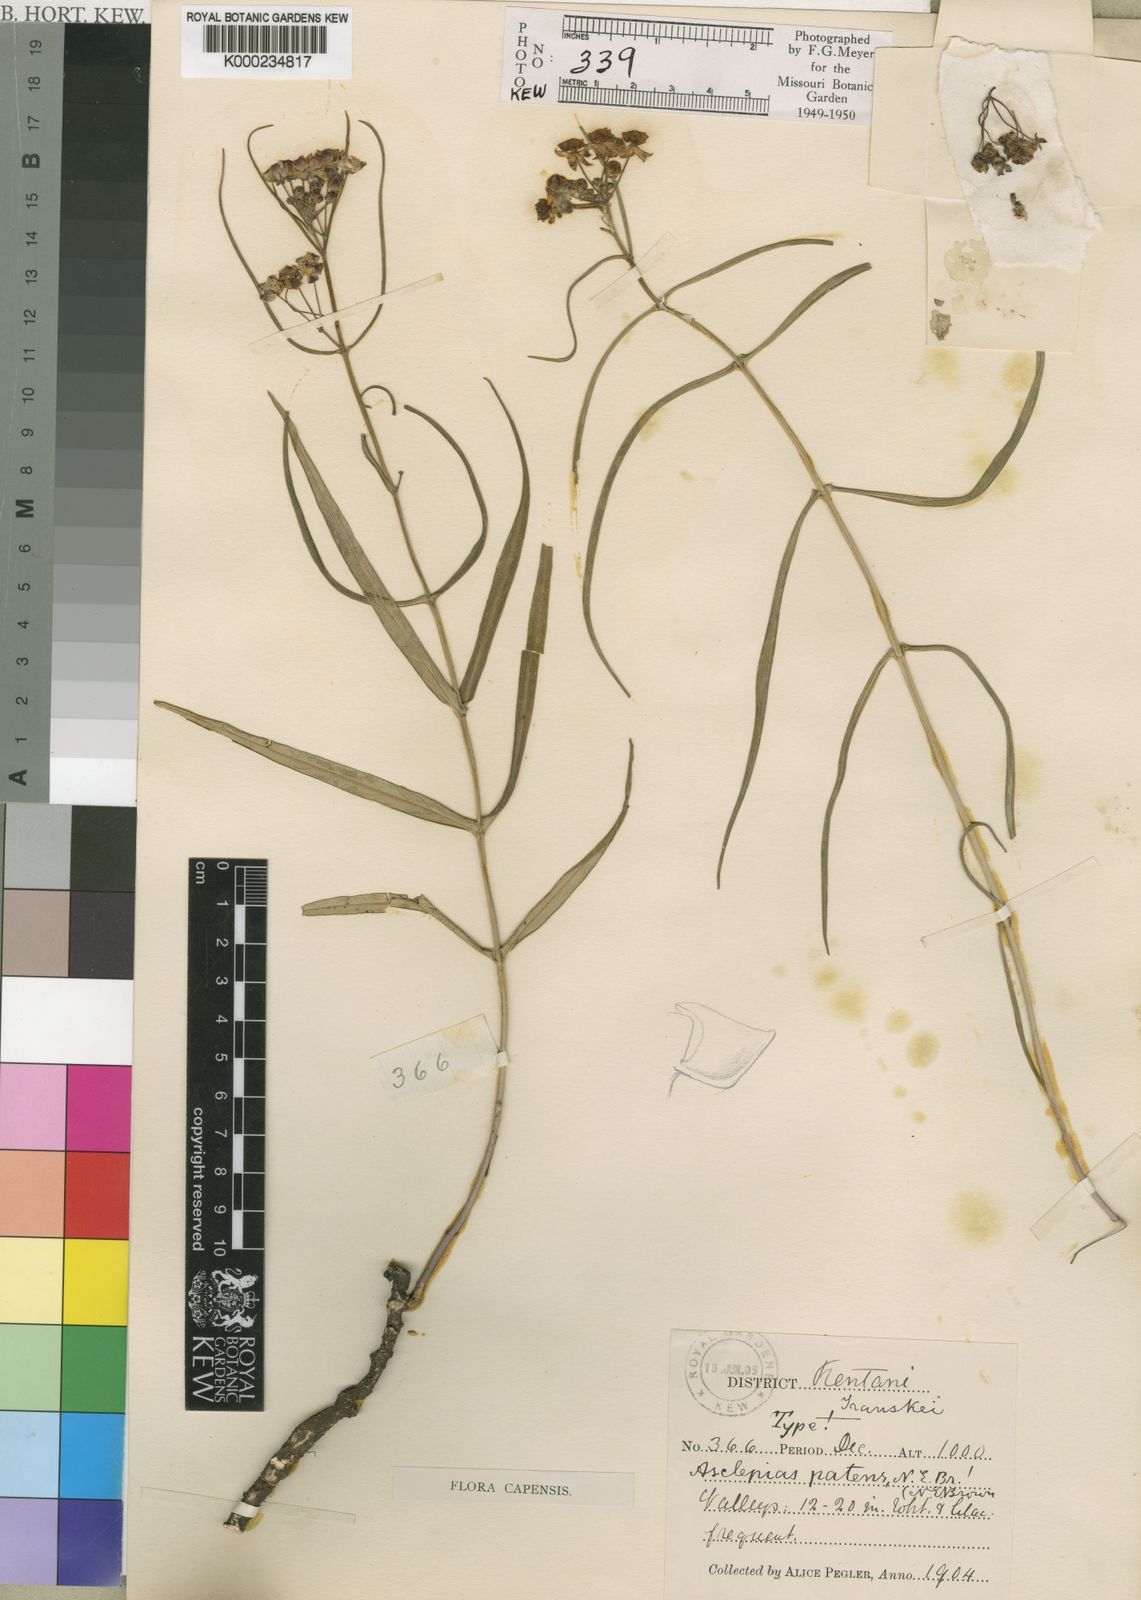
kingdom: Plantae
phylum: Tracheophyta
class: Magnoliopsida
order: Gentianales
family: Apocynaceae
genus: Asclepias
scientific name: Asclepias patens
